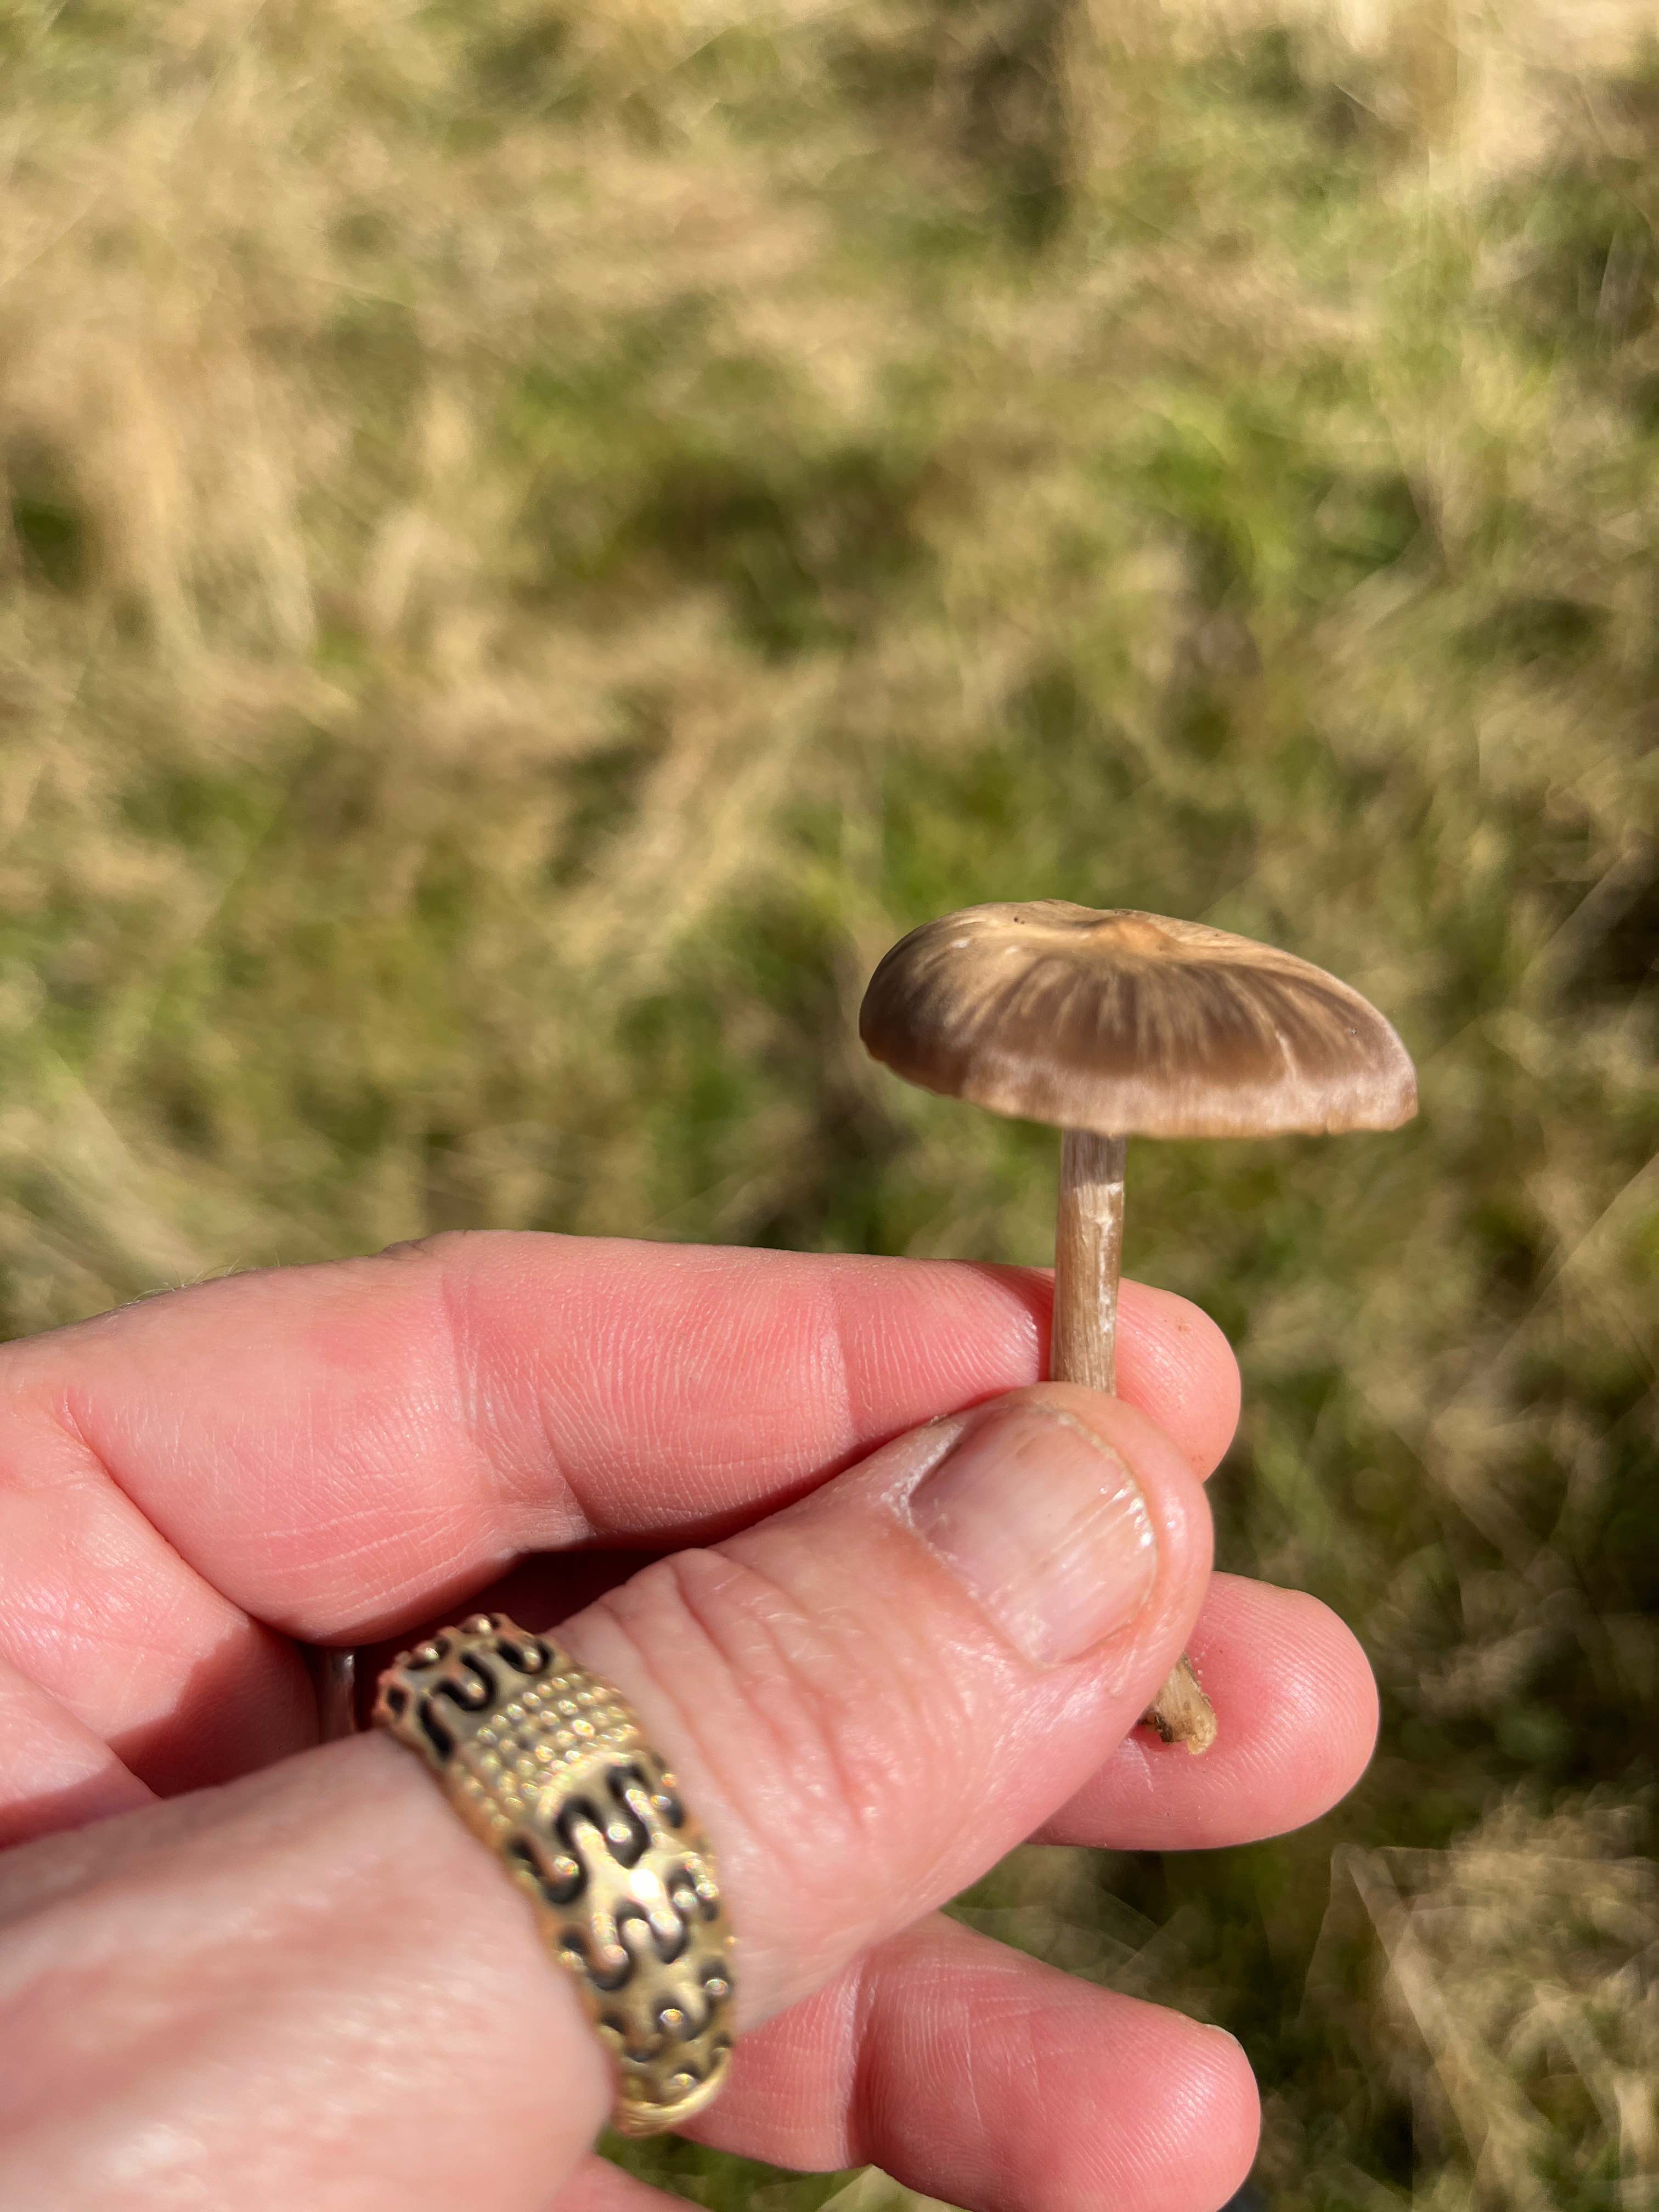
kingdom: Fungi
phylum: Basidiomycota
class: Agaricomycetes
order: Agaricales
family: Entolomataceae
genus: Entoloma
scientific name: Entoloma
